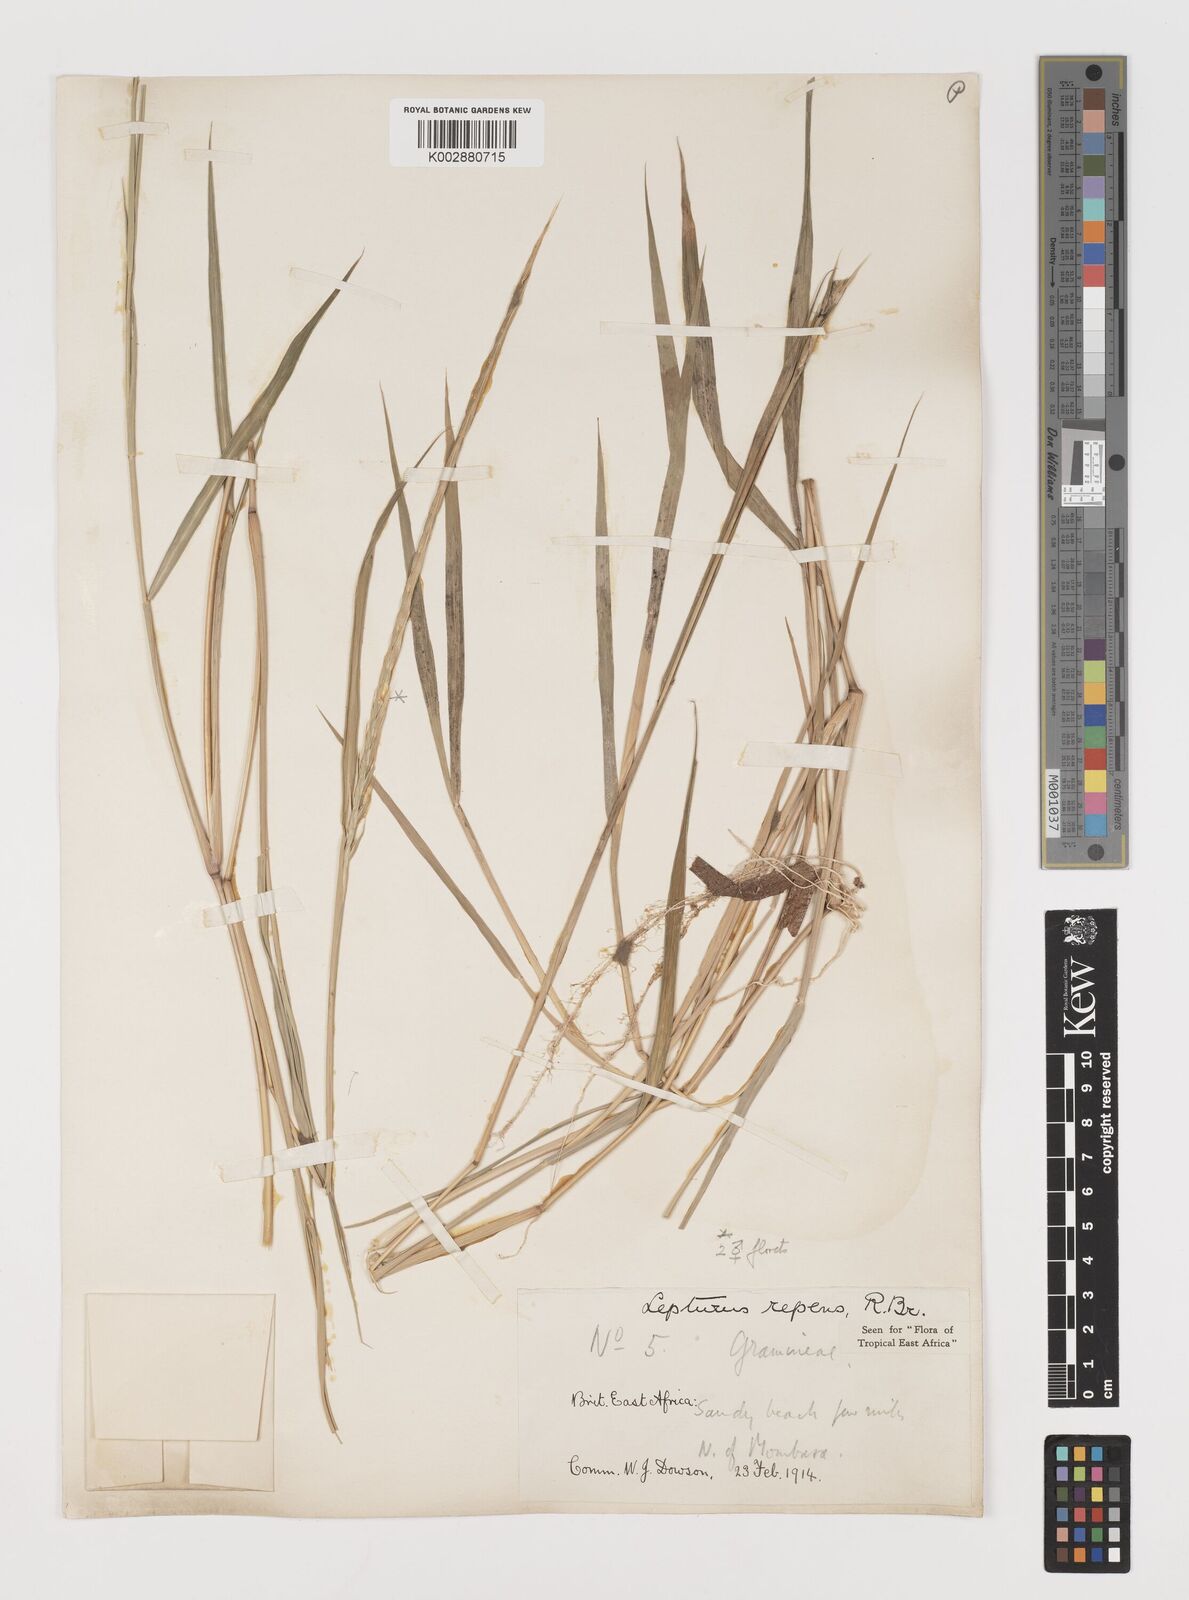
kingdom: Plantae
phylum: Tracheophyta
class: Liliopsida
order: Poales
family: Poaceae
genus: Lepturus
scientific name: Lepturus repens
